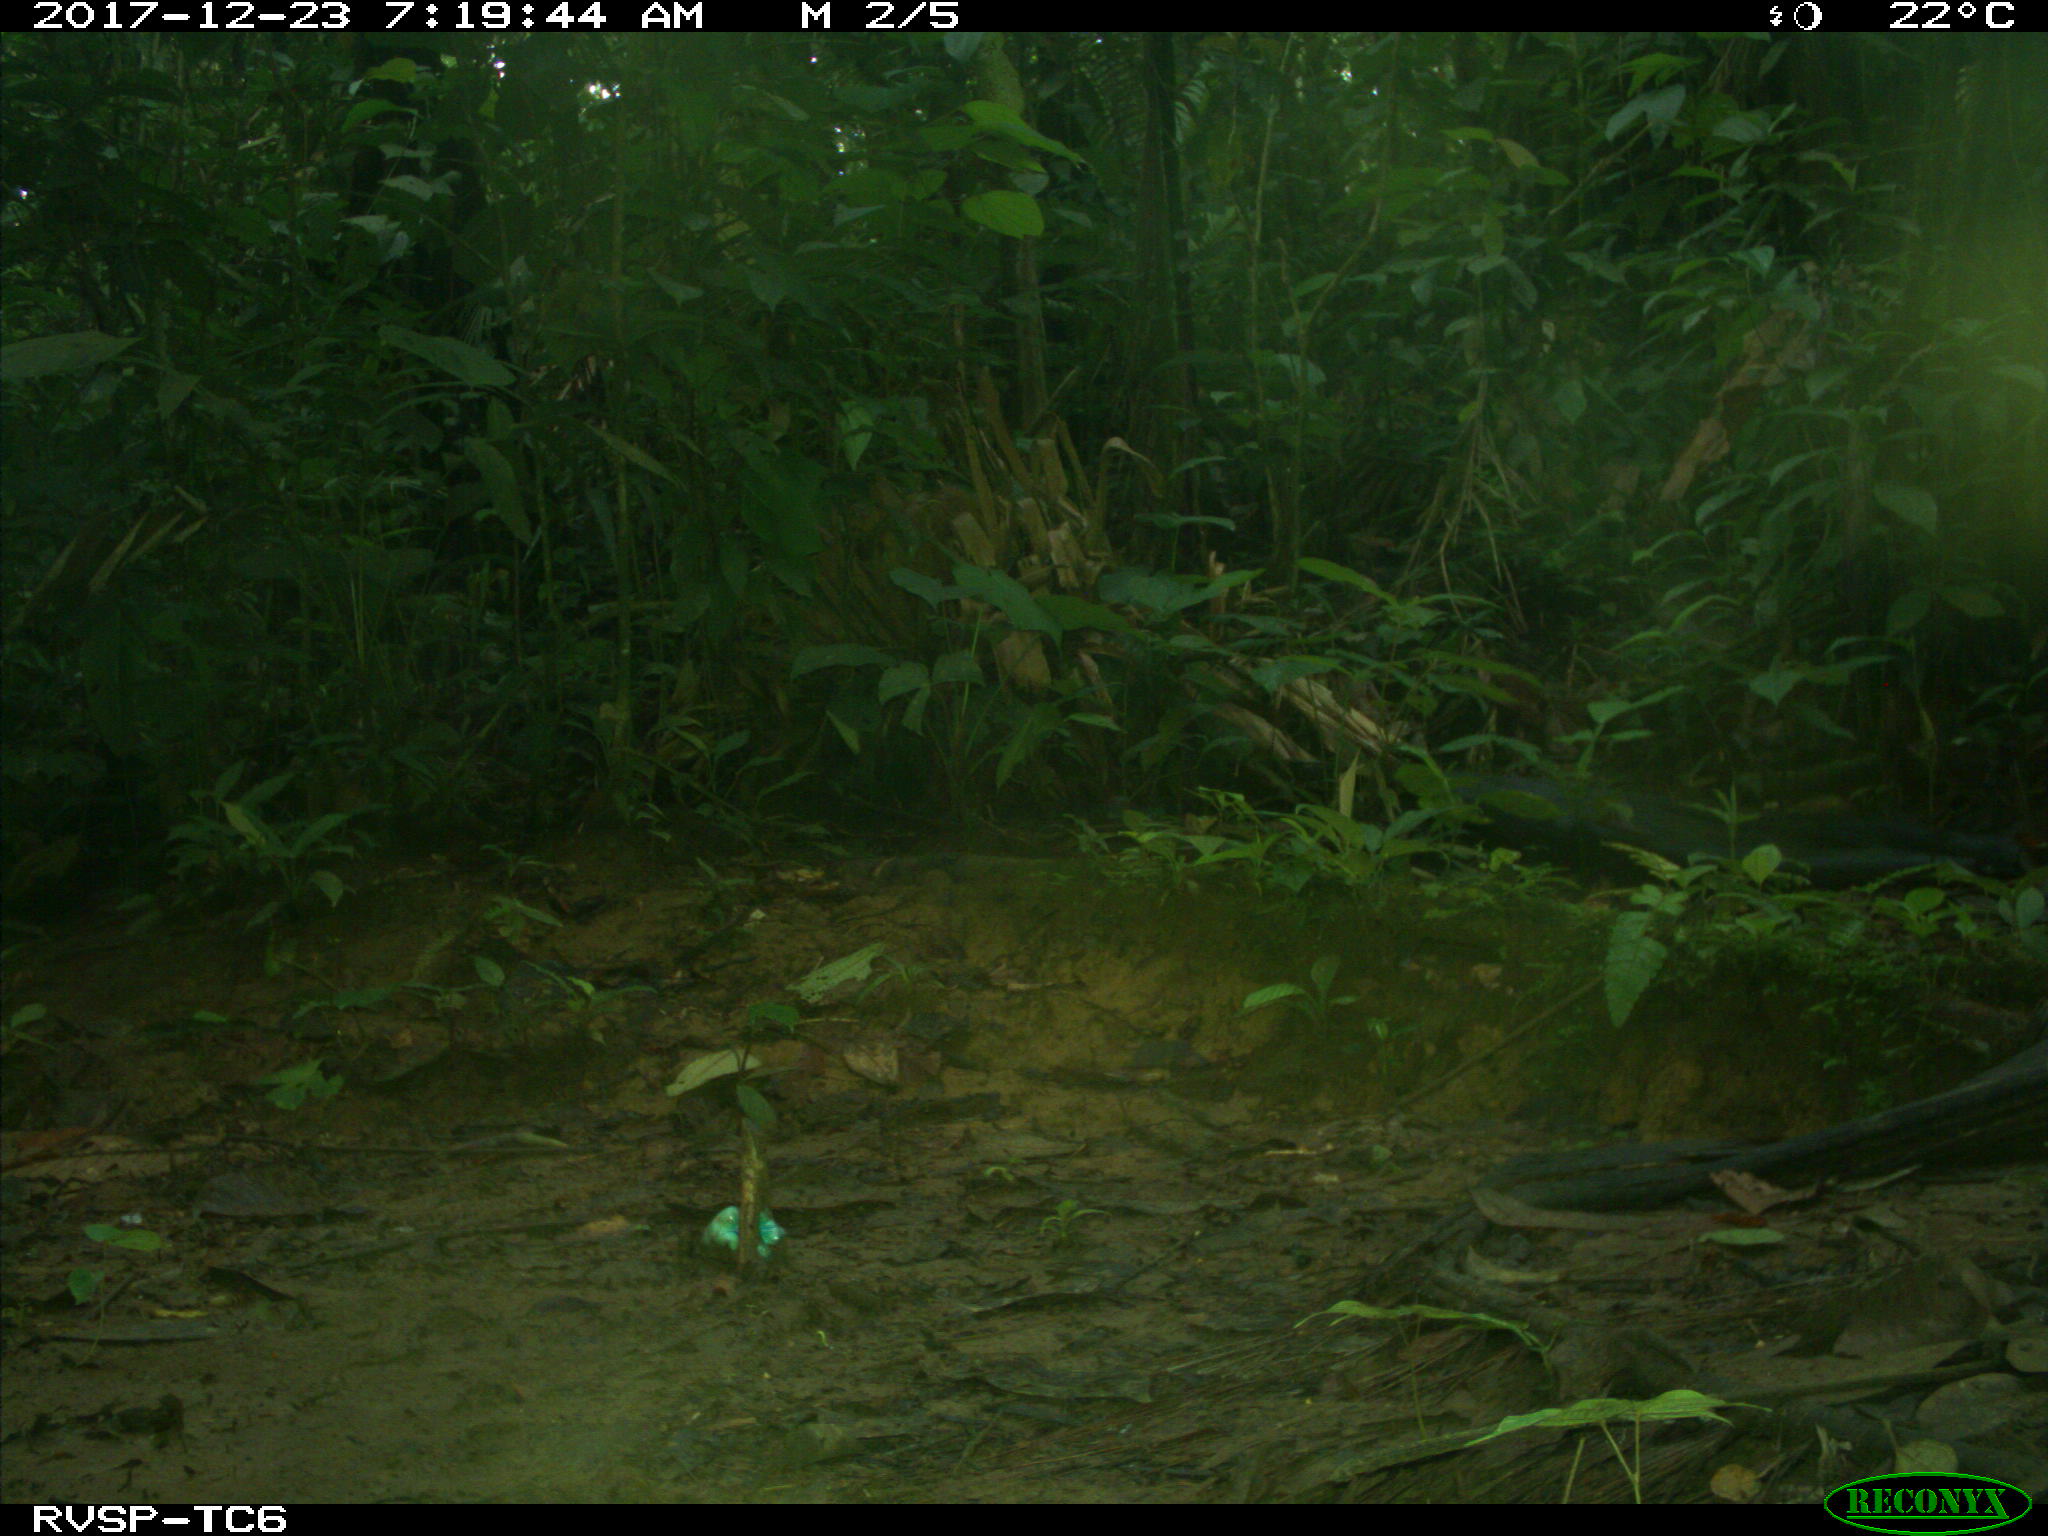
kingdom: Animalia
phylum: Chordata
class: Mammalia
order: Rodentia
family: Dasyproctidae
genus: Dasyprocta
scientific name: Dasyprocta punctata
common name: Central american agouti
